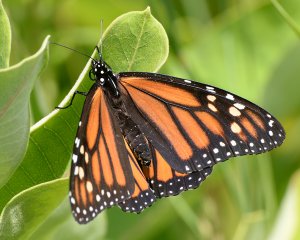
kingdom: Animalia
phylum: Arthropoda
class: Insecta
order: Lepidoptera
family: Nymphalidae
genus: Danaus
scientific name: Danaus plexippus
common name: Monarch
